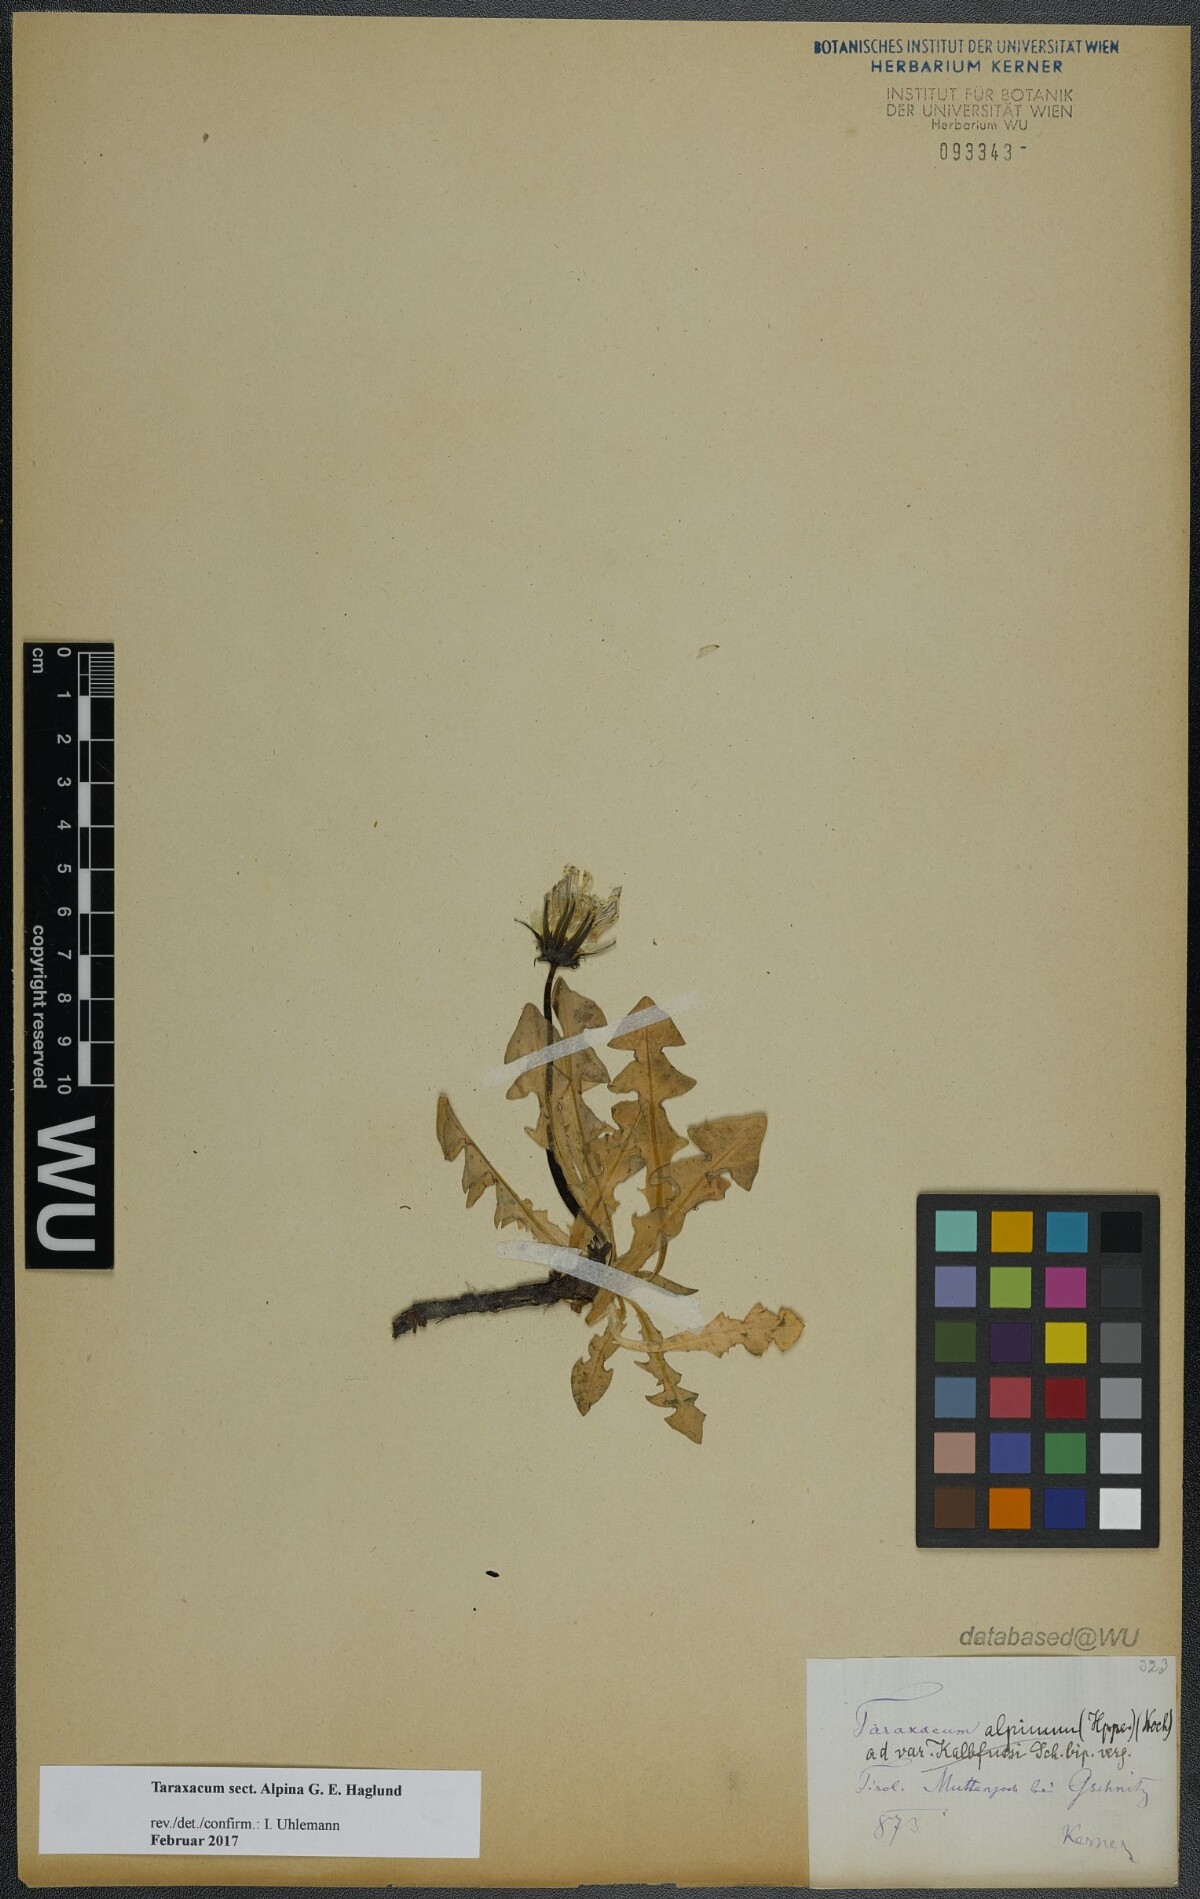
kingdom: Plantae
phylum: Tracheophyta
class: Magnoliopsida
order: Asterales
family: Asteraceae
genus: Taraxacum
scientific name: Taraxacum
